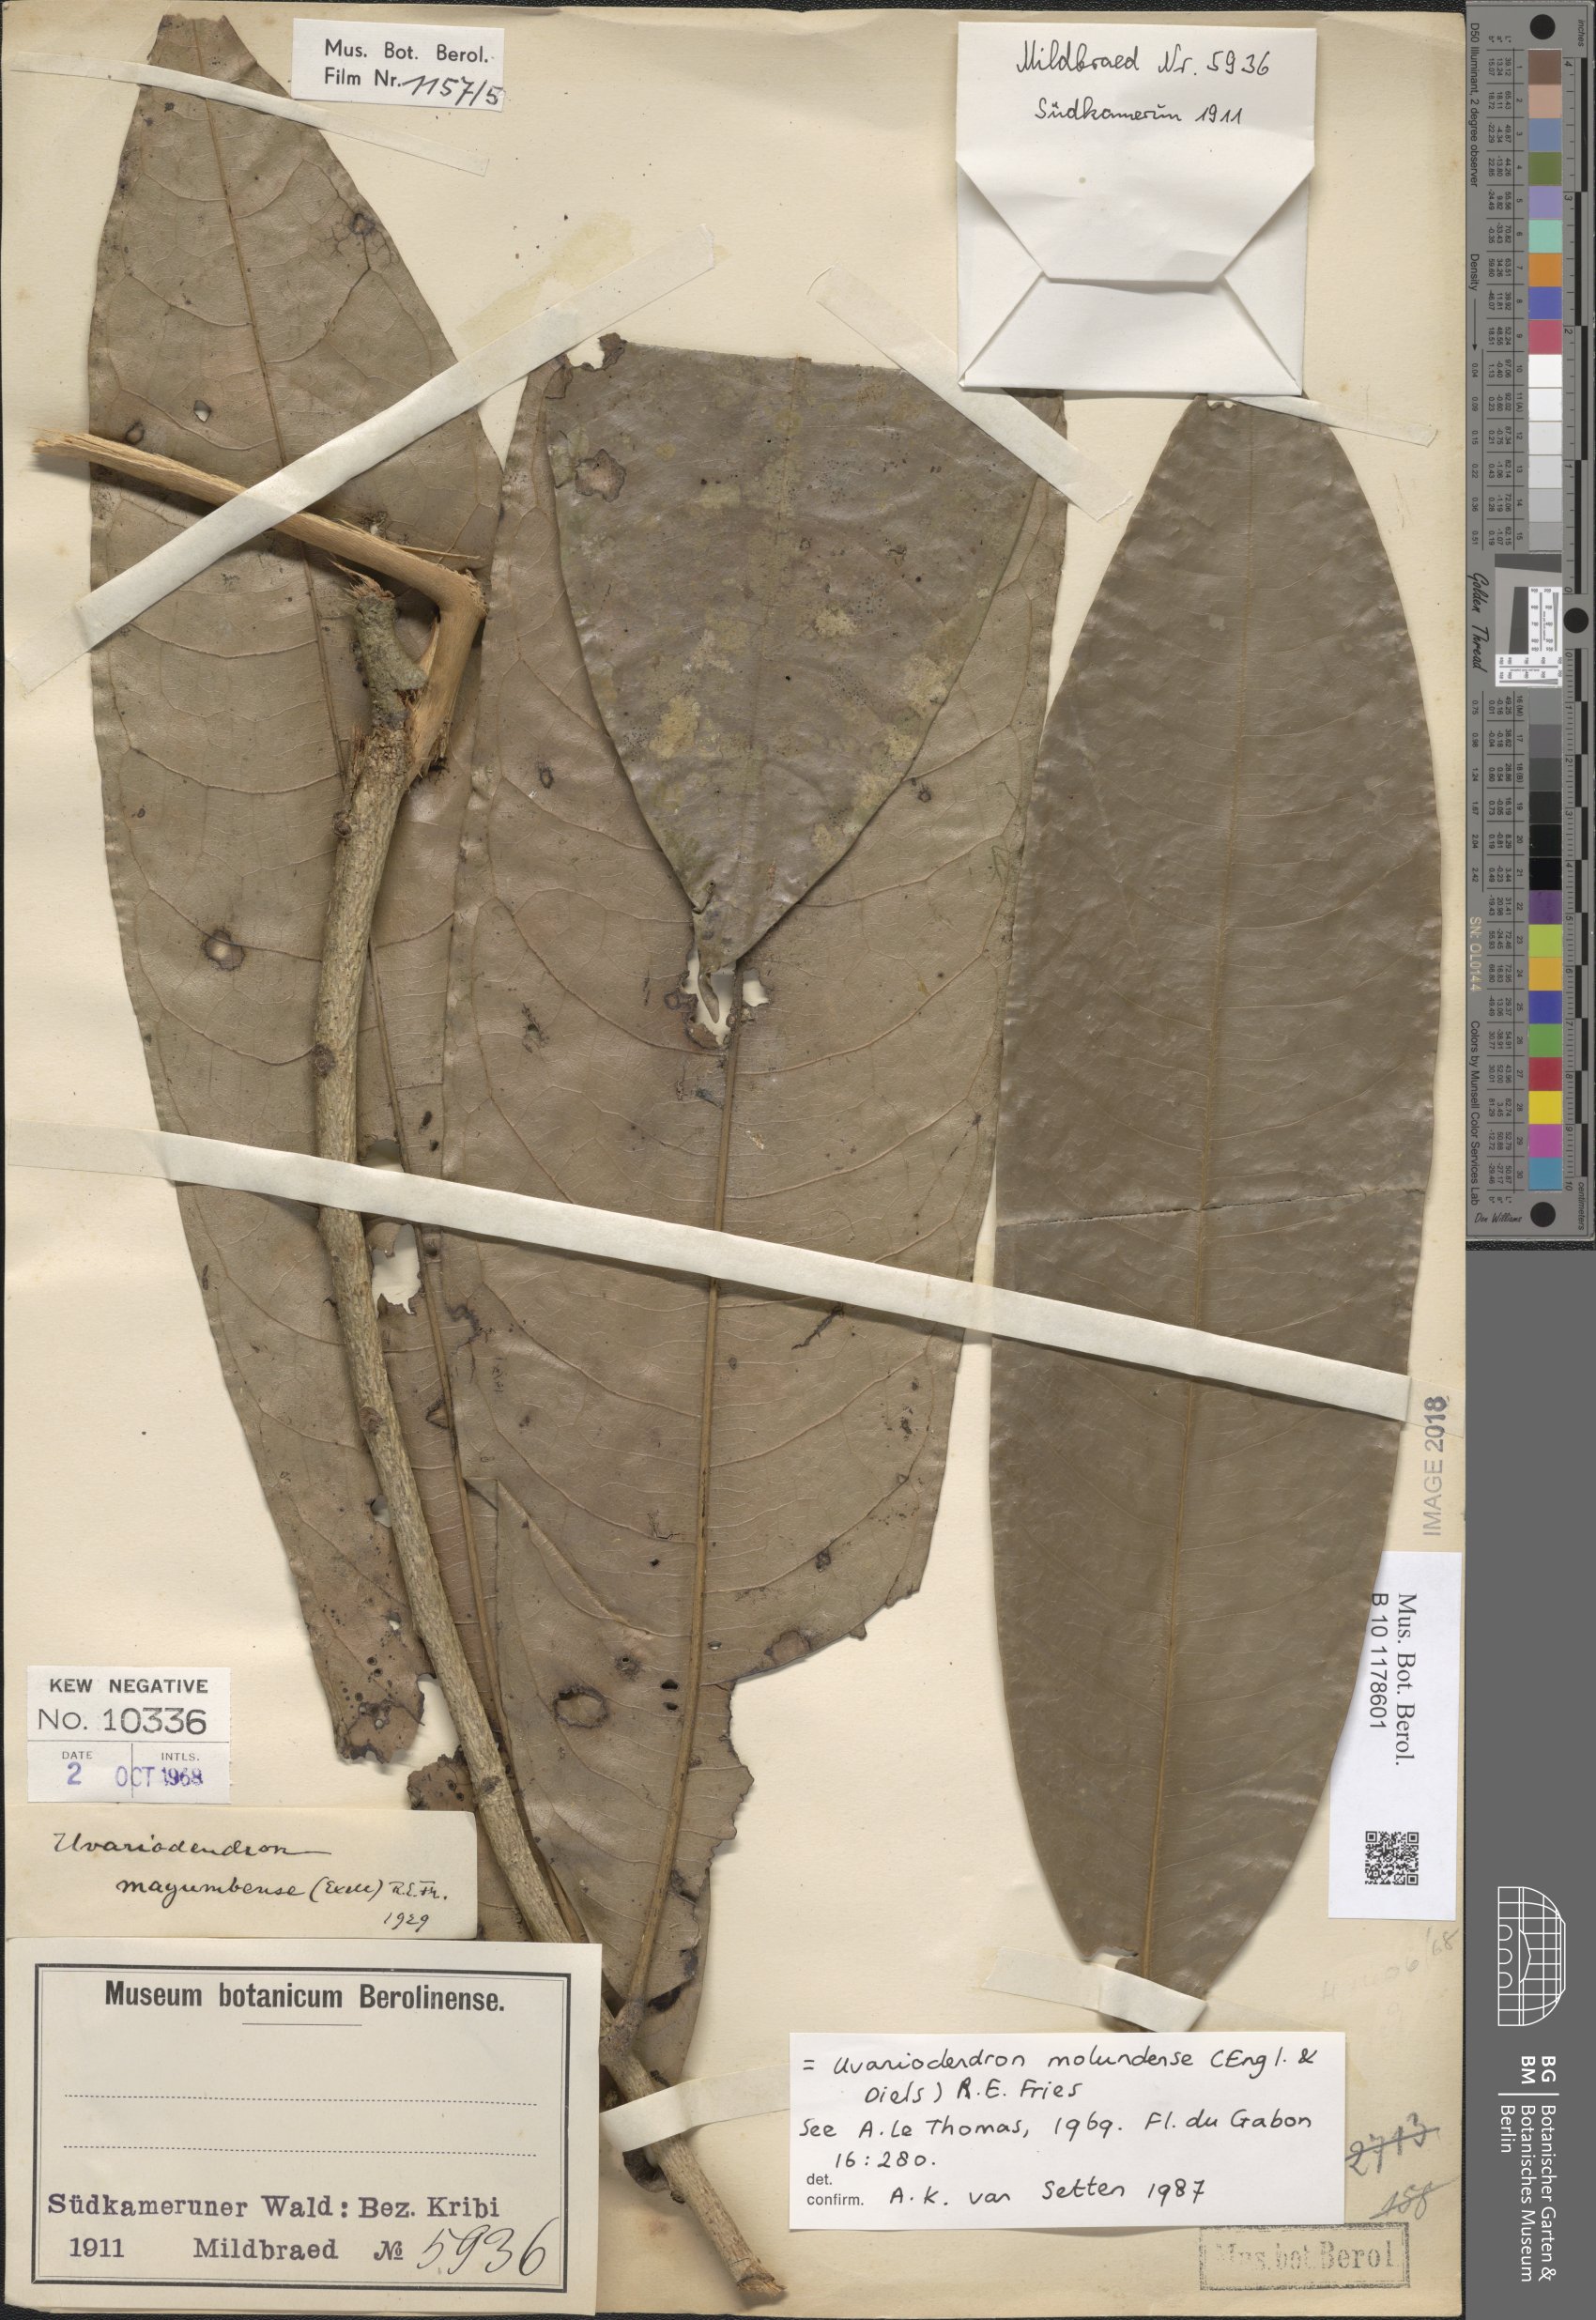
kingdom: Plantae
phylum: Tracheophyta
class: Magnoliopsida
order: Magnoliales
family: Annonaceae
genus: Uvariodendron
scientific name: Uvariodendron molundense
